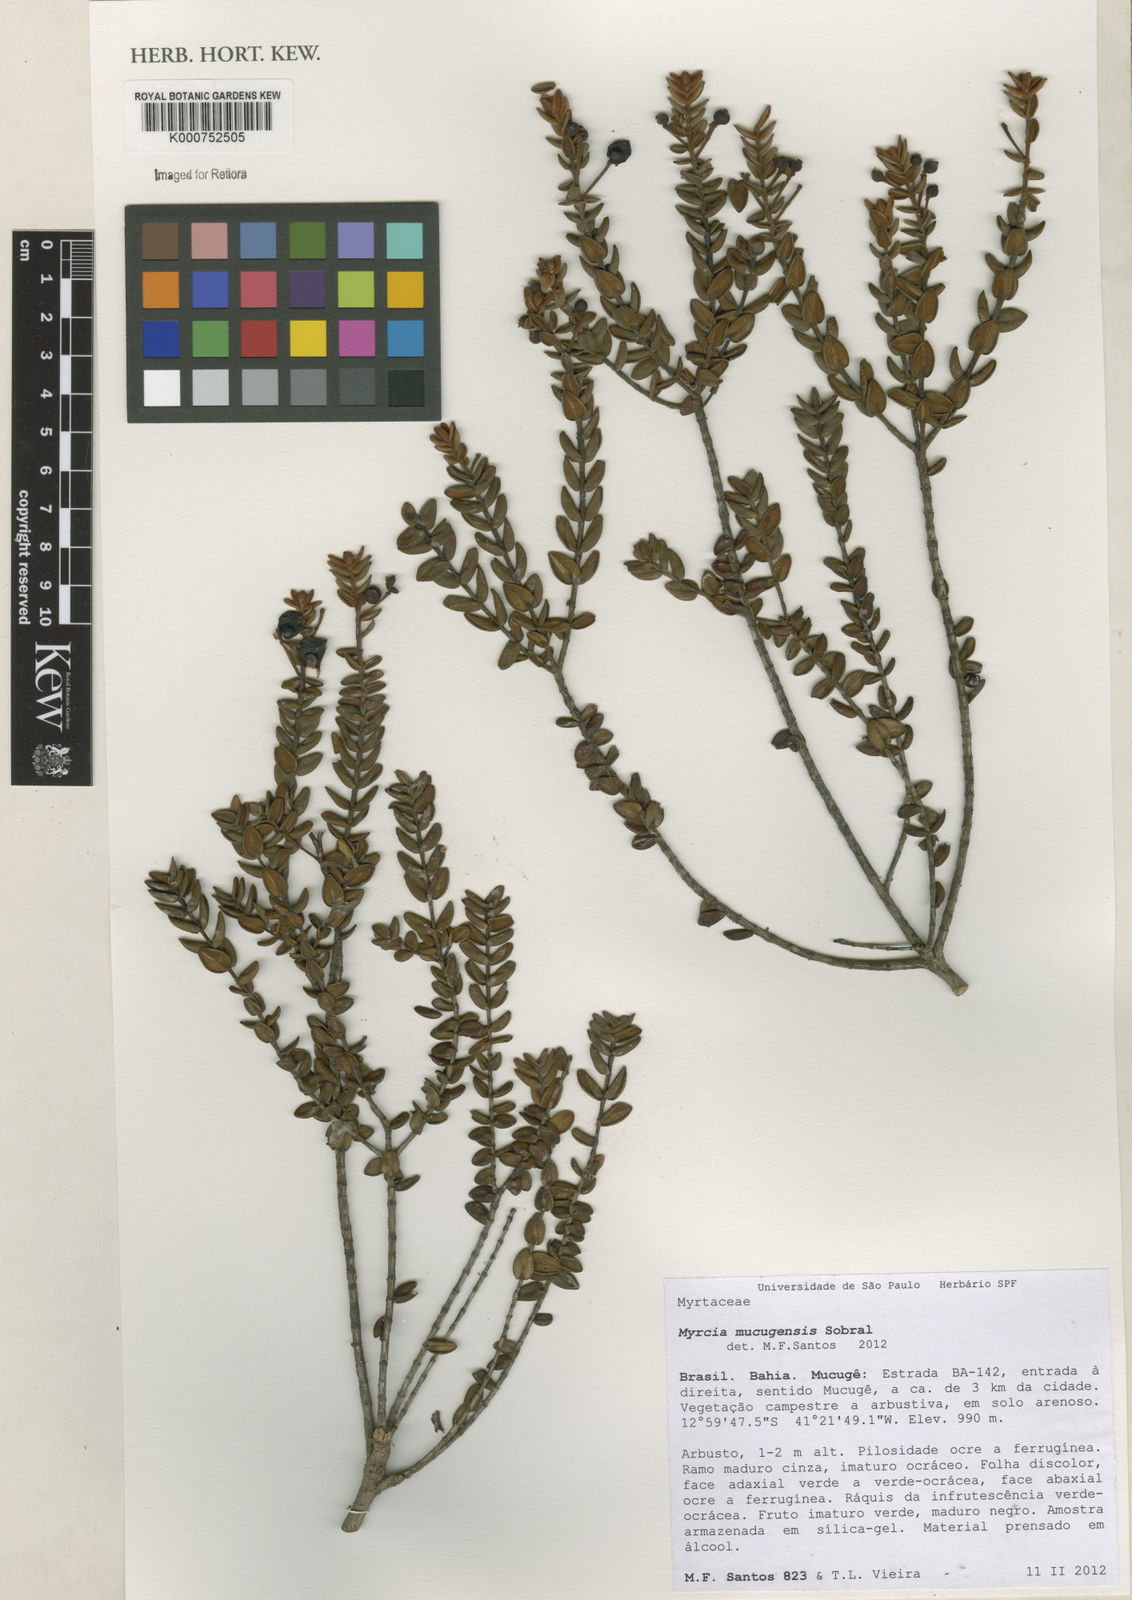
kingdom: Plantae
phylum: Tracheophyta
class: Magnoliopsida
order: Myrtales
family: Myrtaceae
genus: Myrcia
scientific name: Myrcia mucugensis
